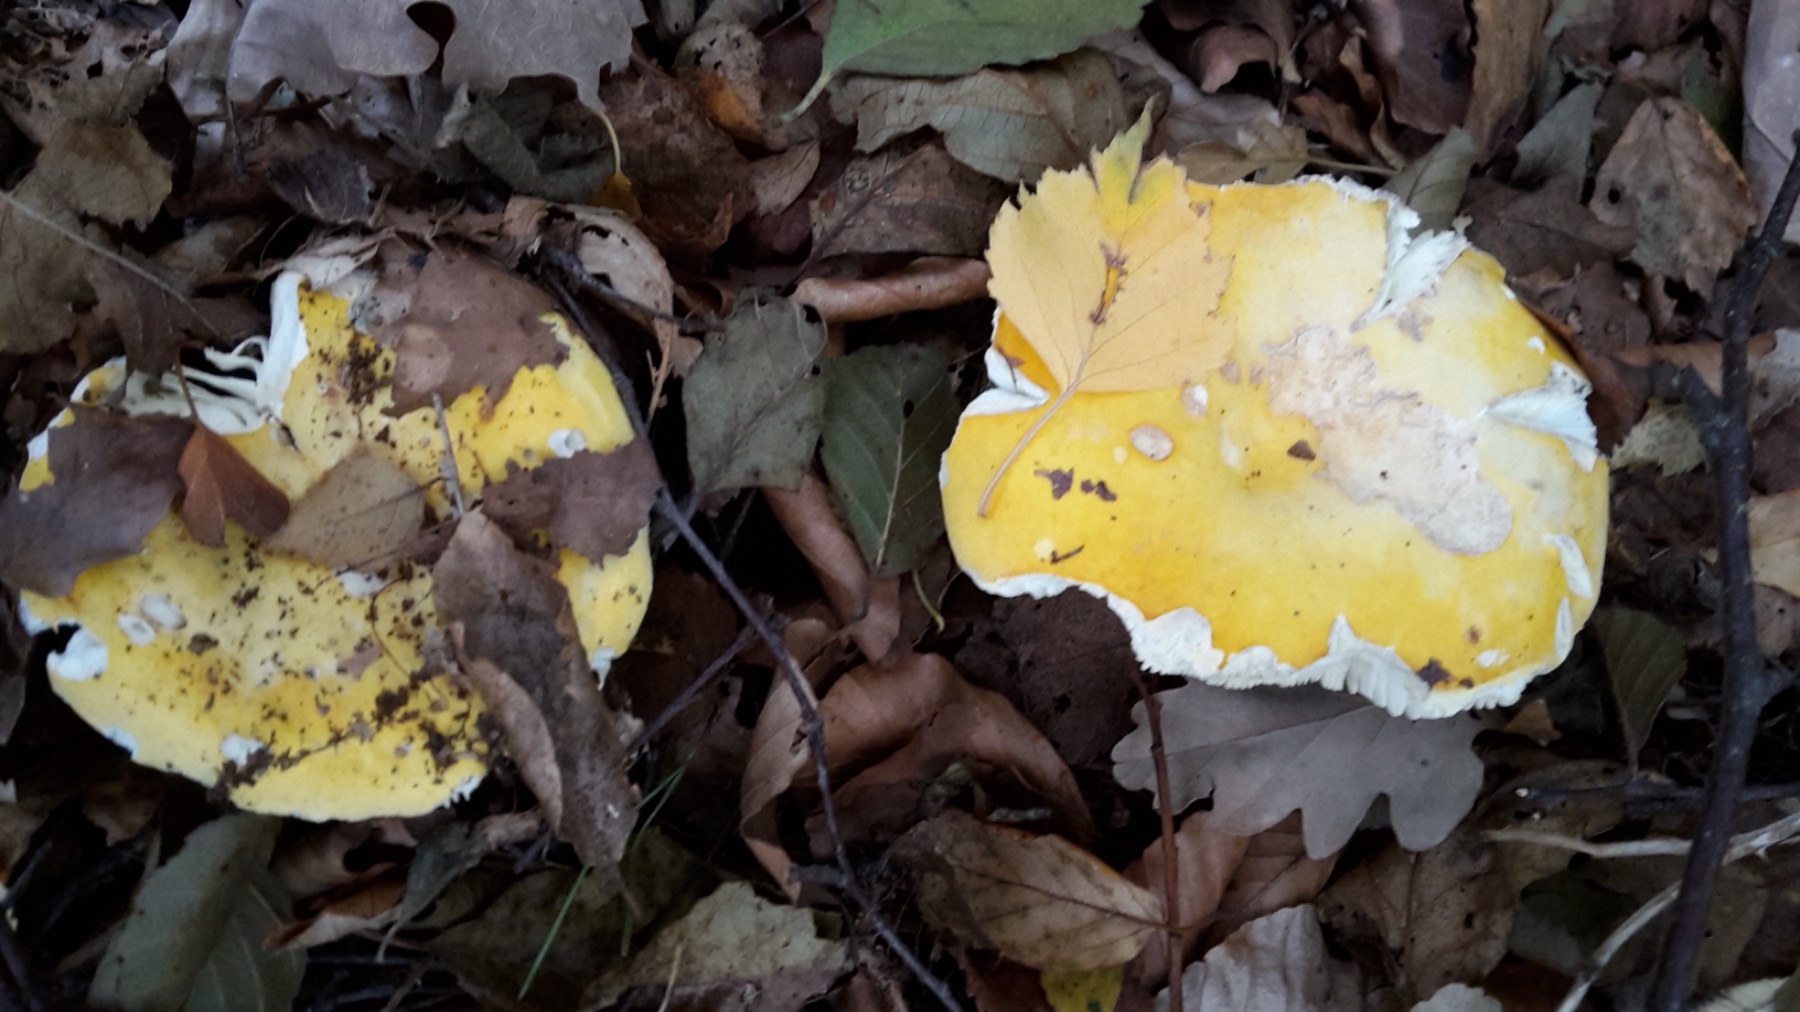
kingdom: Fungi
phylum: Basidiomycota
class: Agaricomycetes
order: Russulales
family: Russulaceae
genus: Russula
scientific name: Russula claroflava
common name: birke-skørhat
